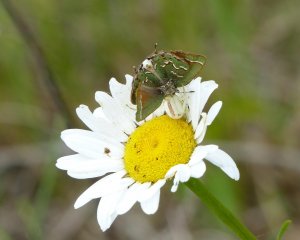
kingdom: Animalia
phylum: Arthropoda
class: Insecta
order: Lepidoptera
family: Lycaenidae
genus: Mitoura
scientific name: Mitoura gryneus
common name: Juniper Hairstreak
